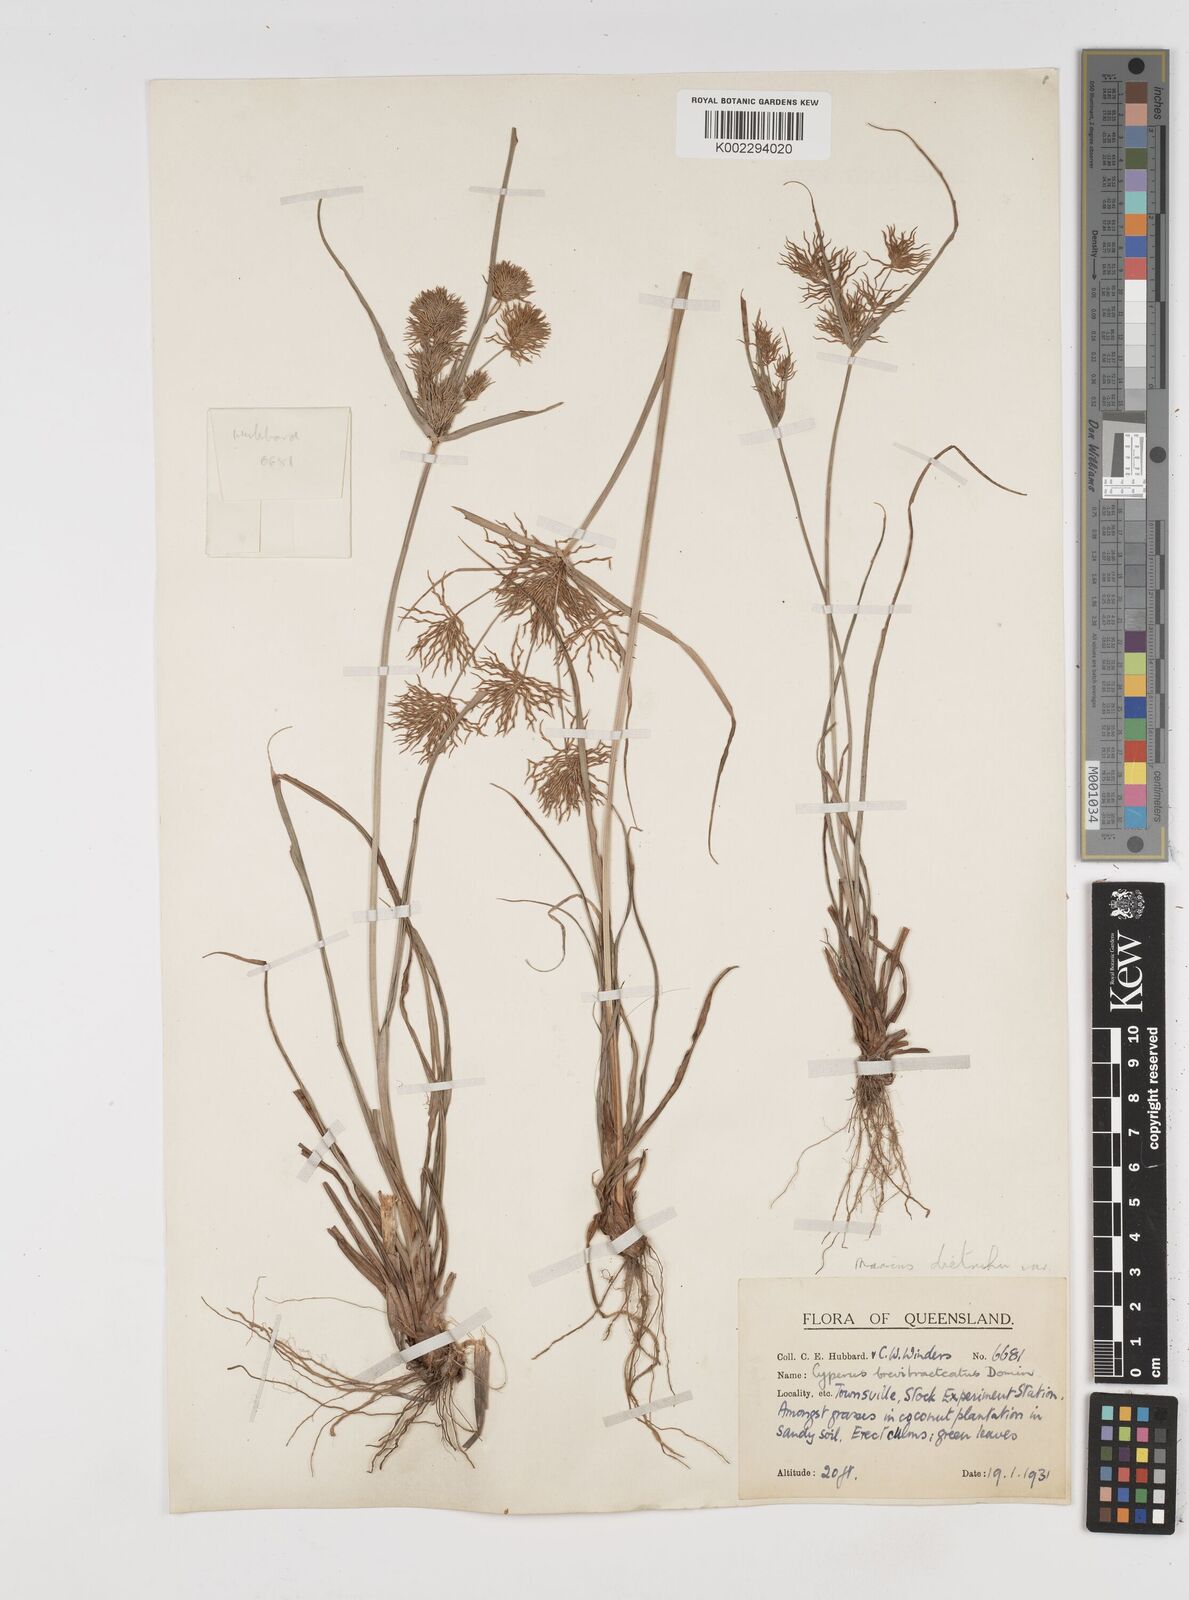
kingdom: Plantae
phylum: Tracheophyta
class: Liliopsida
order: Poales
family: Cyperaceae
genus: Cyperus
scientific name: Cyperus dietrichiae
